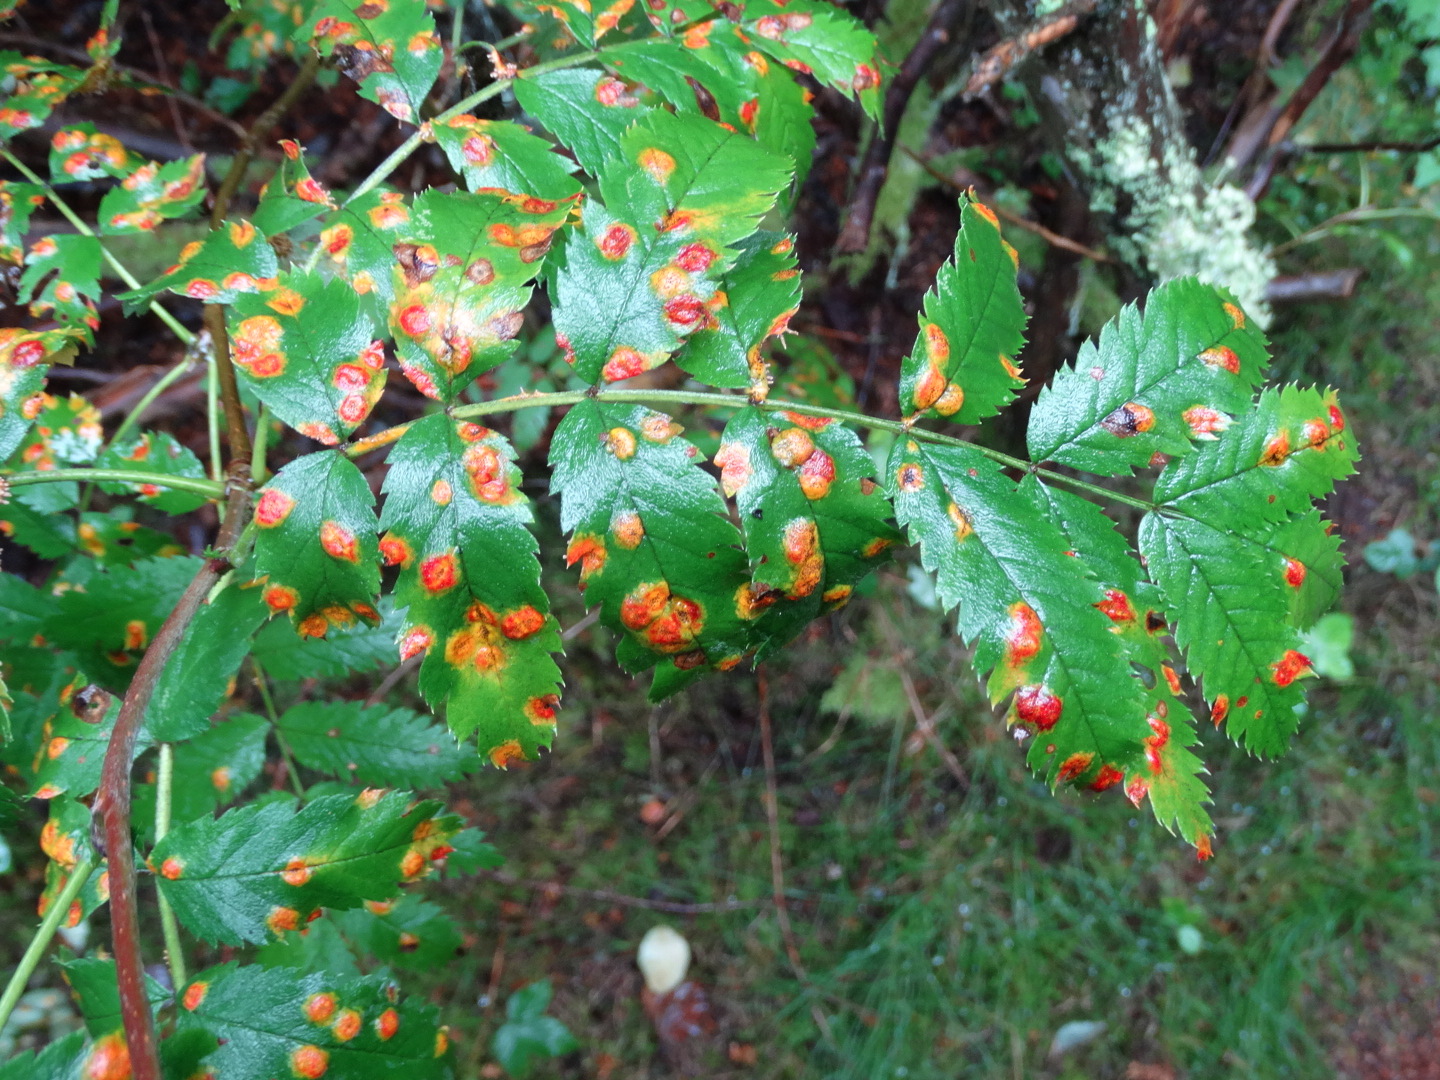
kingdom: Fungi
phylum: Basidiomycota
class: Pucciniomycetes
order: Pucciniales
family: Gymnosporangiaceae
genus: Gymnosporangium
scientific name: Gymnosporangium cornutum
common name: rønnehorn-bævrerust
